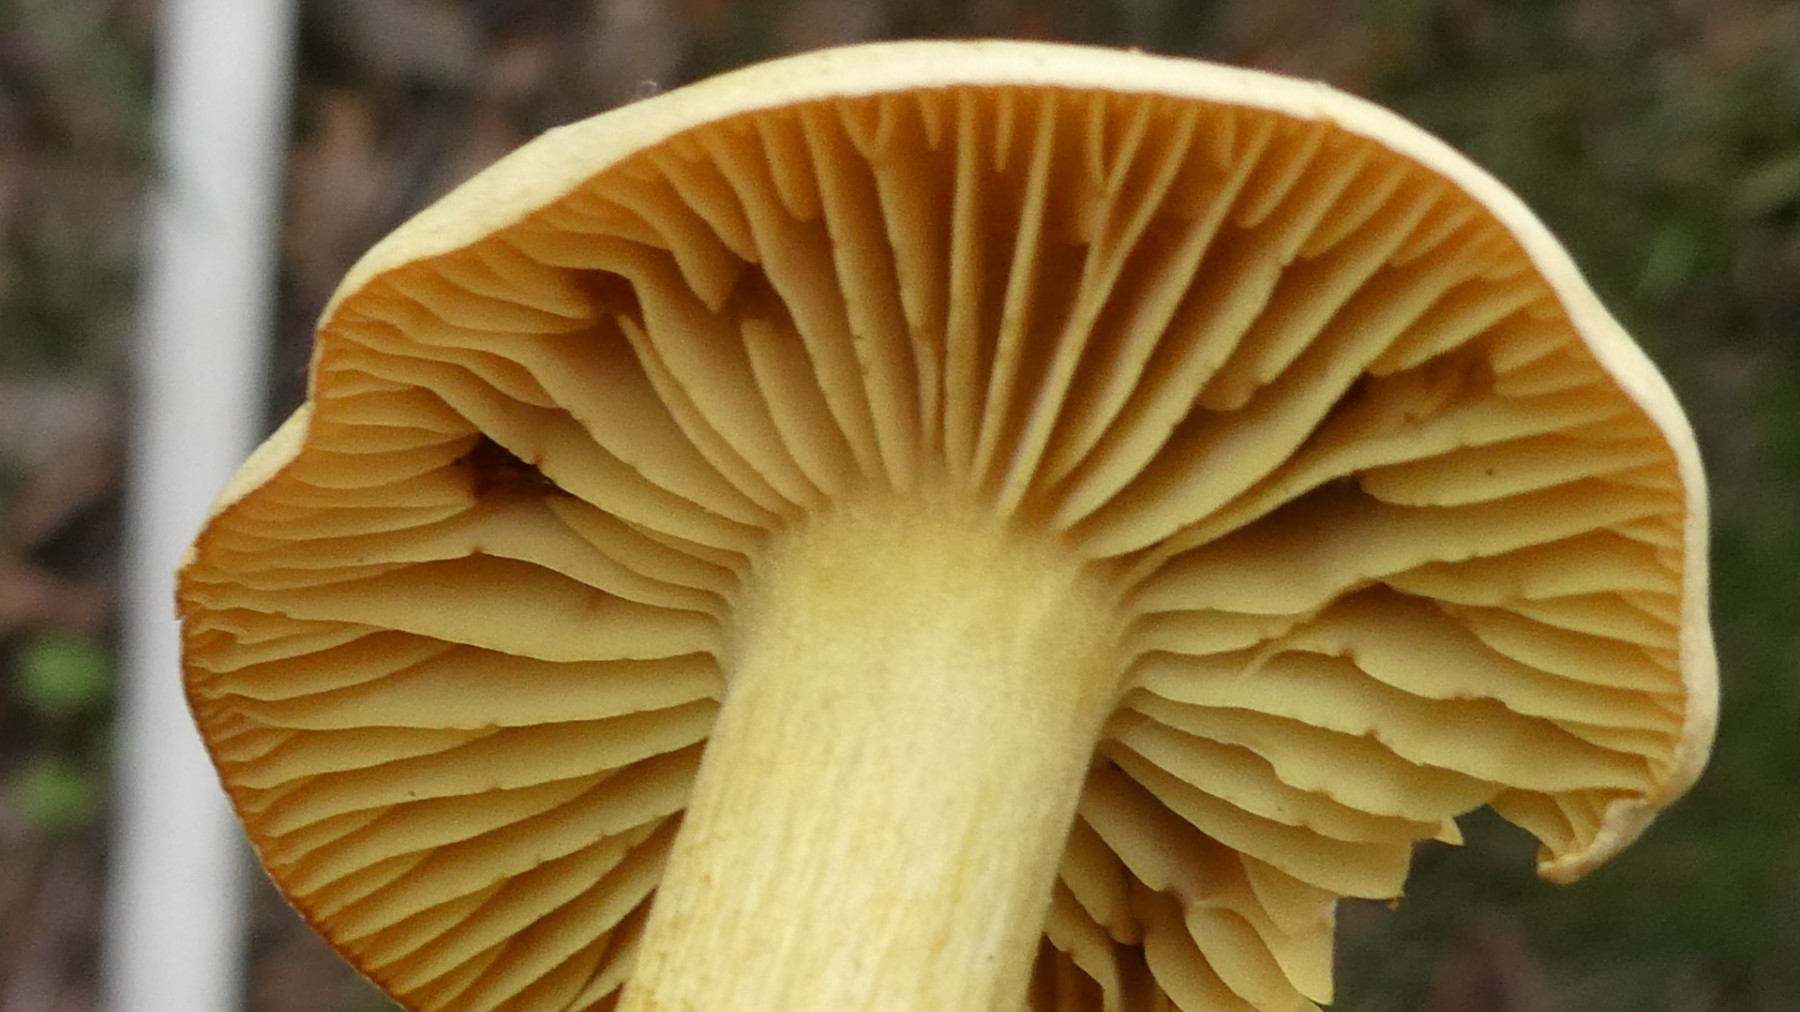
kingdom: Fungi
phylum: Basidiomycota
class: Agaricomycetes
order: Agaricales
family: Tricholomataceae
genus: Tricholoma
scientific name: Tricholoma sulphureum
